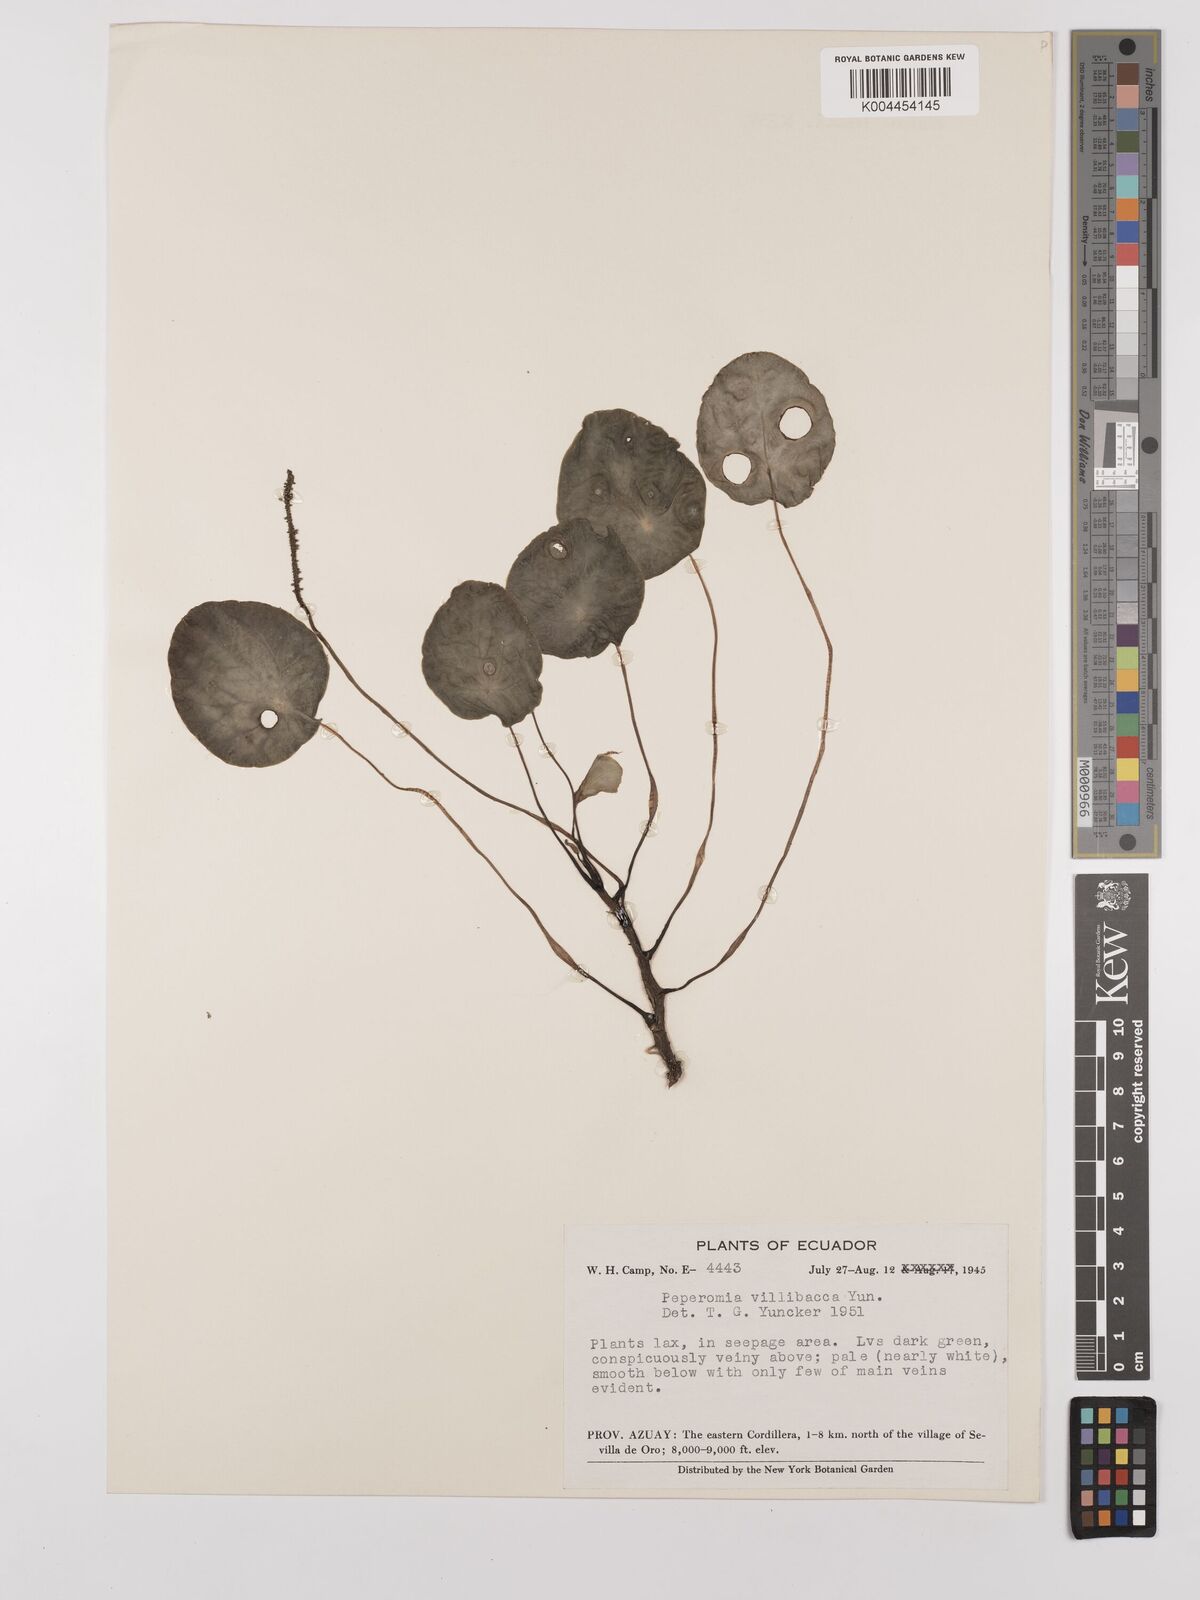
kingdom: Plantae
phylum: Tracheophyta
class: Magnoliopsida
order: Piperales
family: Piperaceae
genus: Peperomia
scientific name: Peperomia tropeoloides
